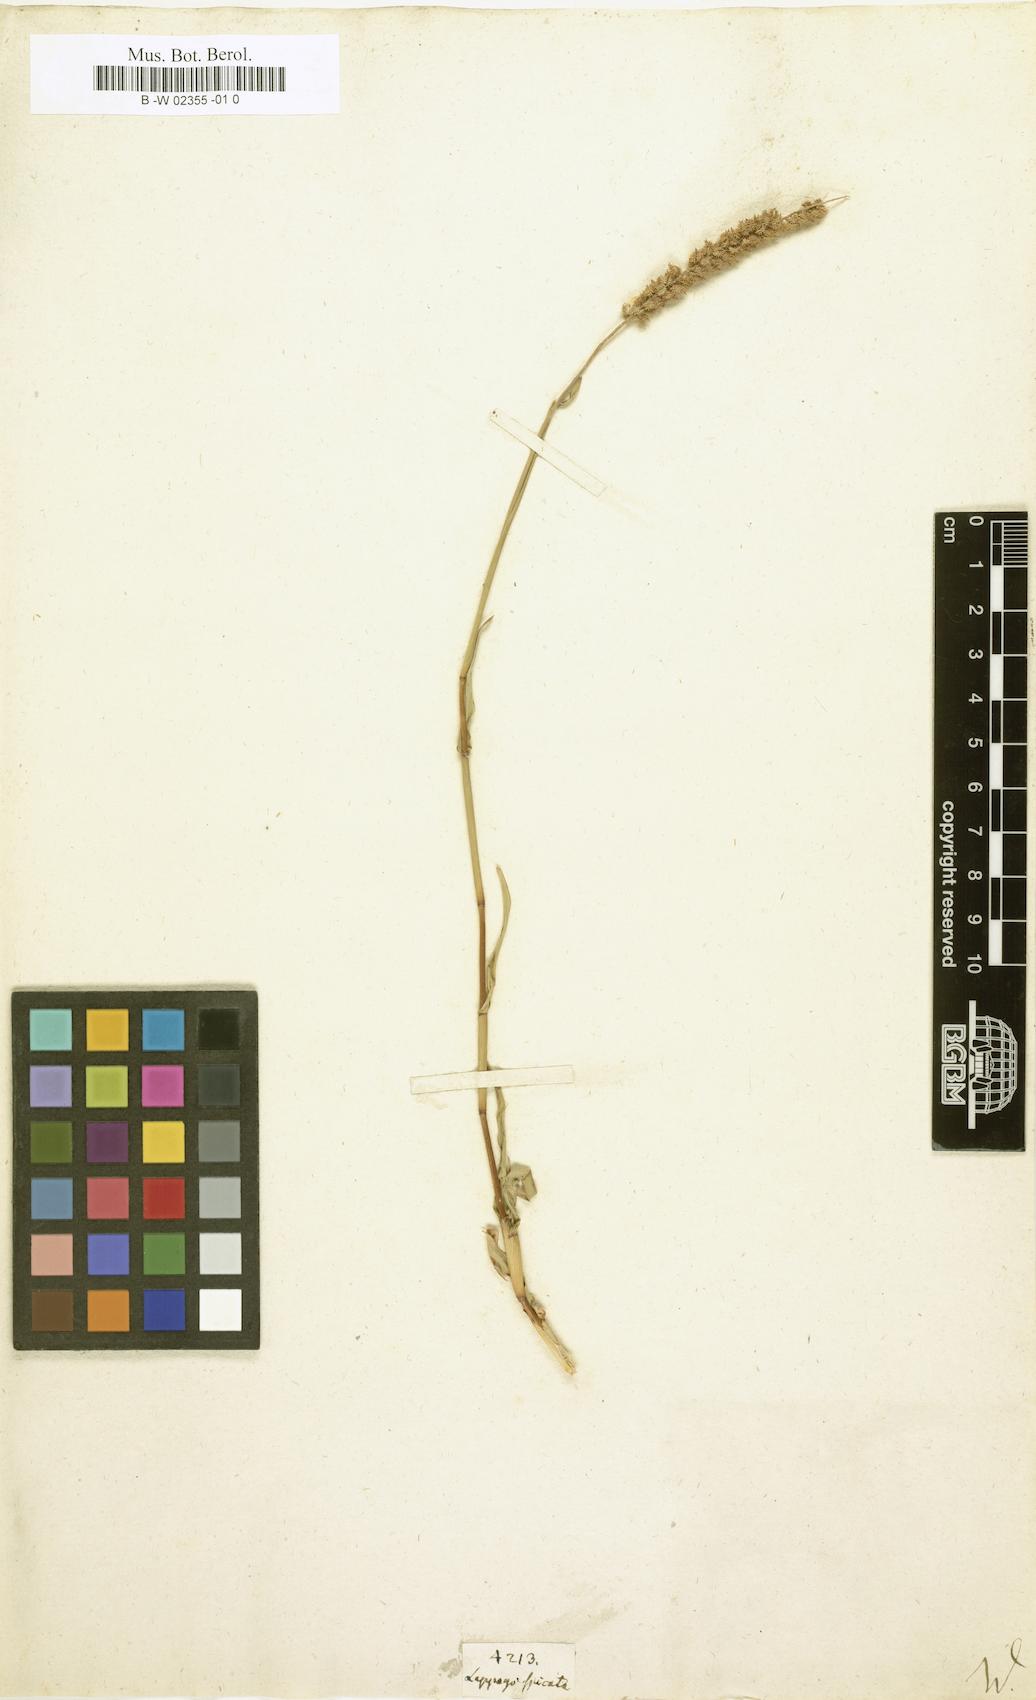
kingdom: Plantae
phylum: Tracheophyta
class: Liliopsida
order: Poales
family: Poaceae
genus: Tragus
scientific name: Tragus
